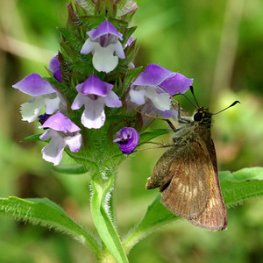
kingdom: Animalia
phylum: Arthropoda
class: Insecta
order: Lepidoptera
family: Hesperiidae
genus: Polites
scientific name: Polites egeremet
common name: Northern Broken-Dash
